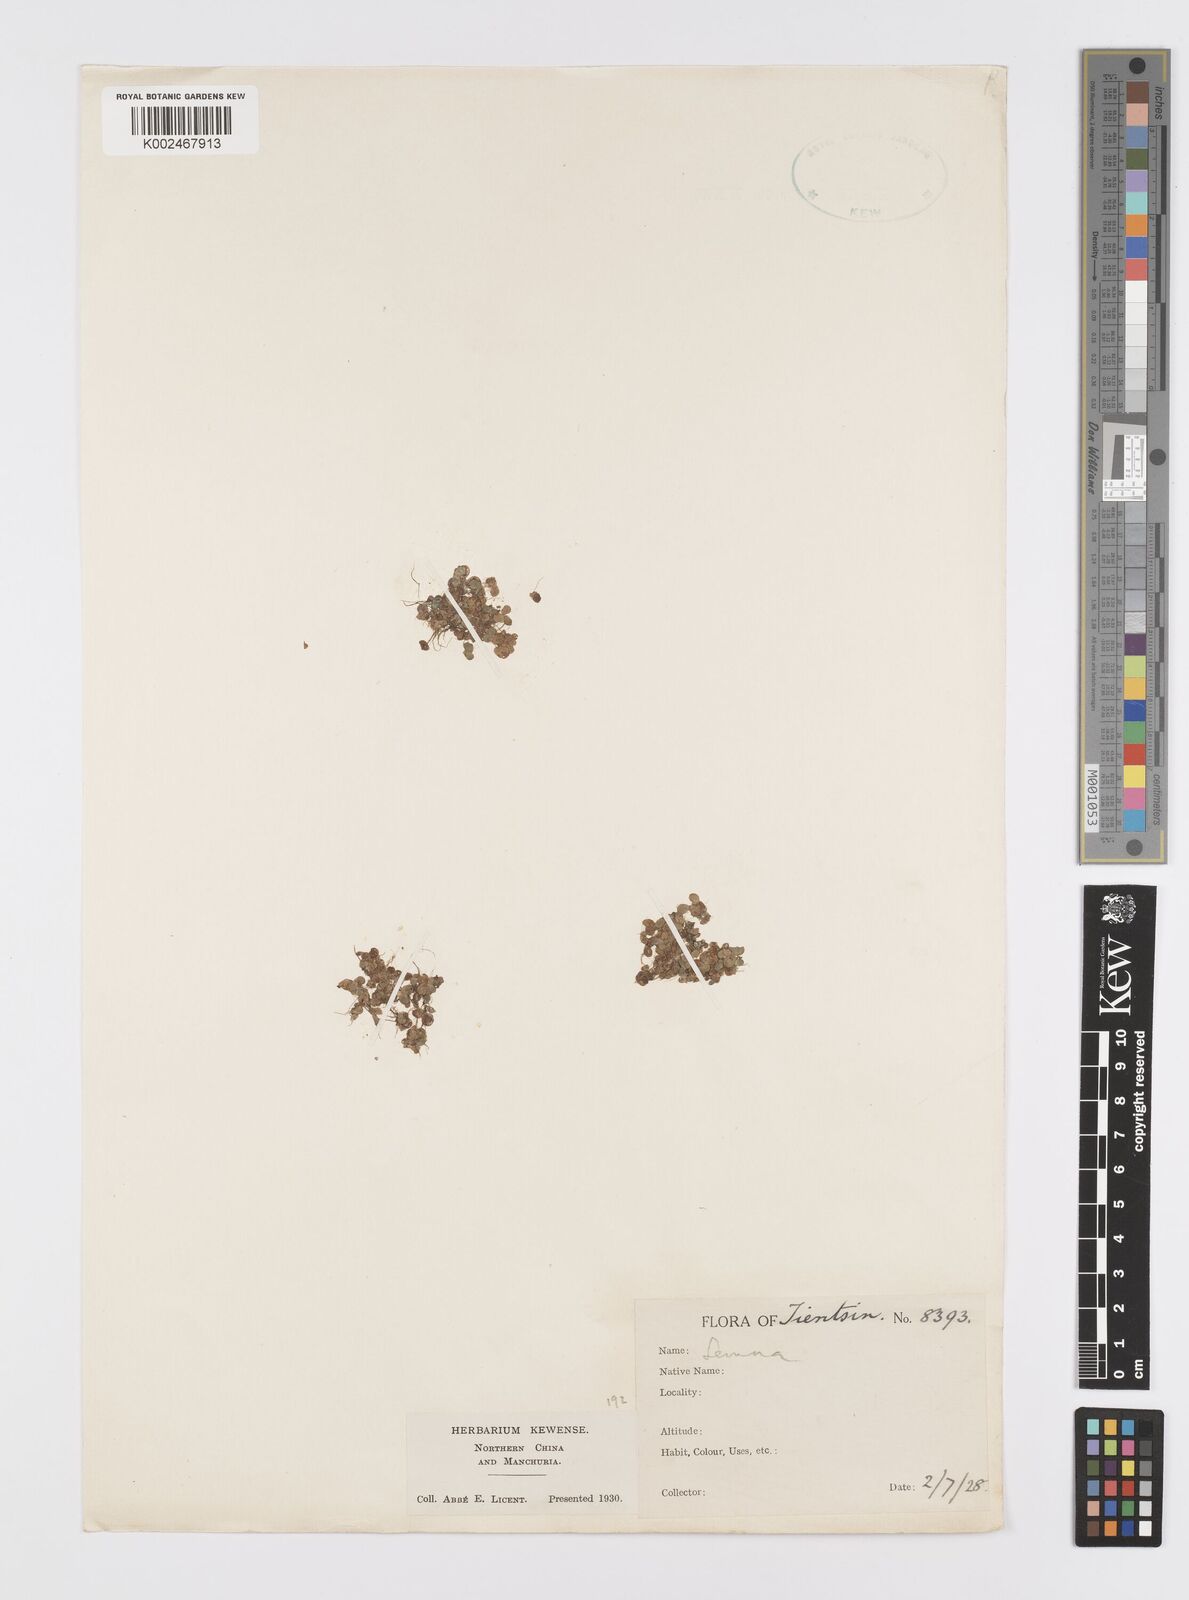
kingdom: Plantae
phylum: Tracheophyta
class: Liliopsida
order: Alismatales
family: Araceae
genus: Lemna
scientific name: Lemna
